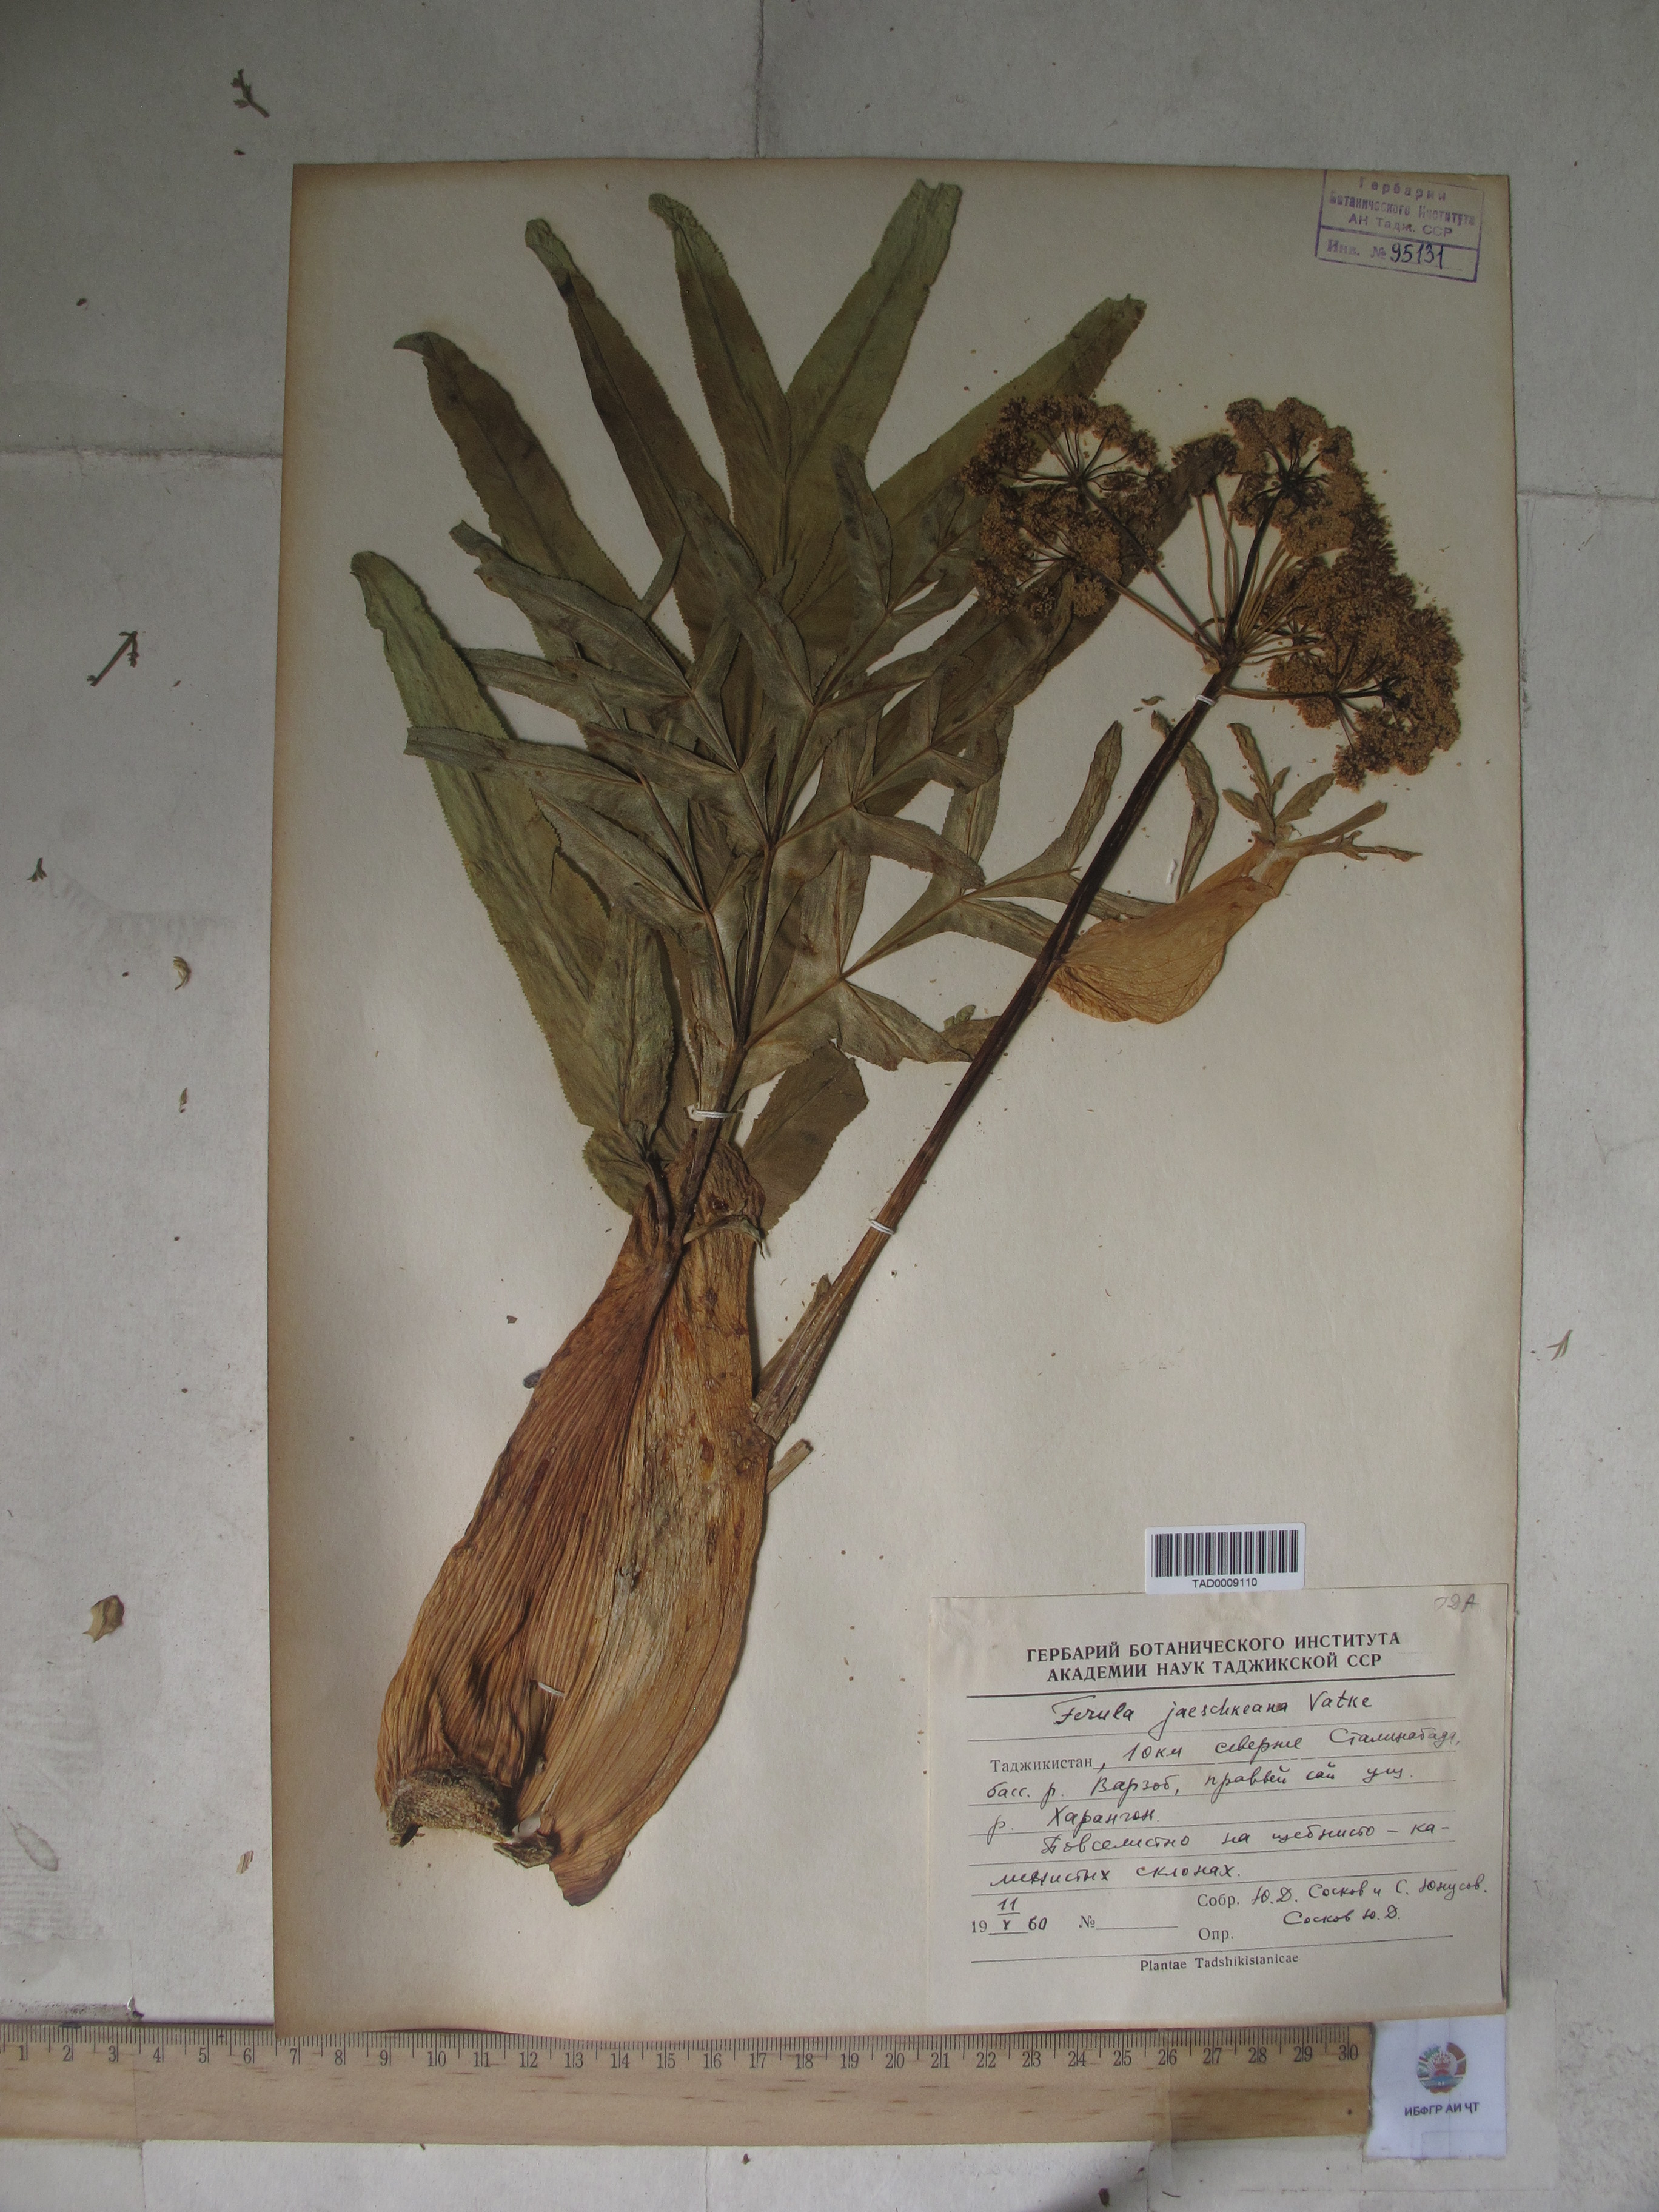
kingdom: Plantae
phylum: Tracheophyta
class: Magnoliopsida
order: Apiales
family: Apiaceae
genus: Ferula
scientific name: Ferula jaeschkeana
